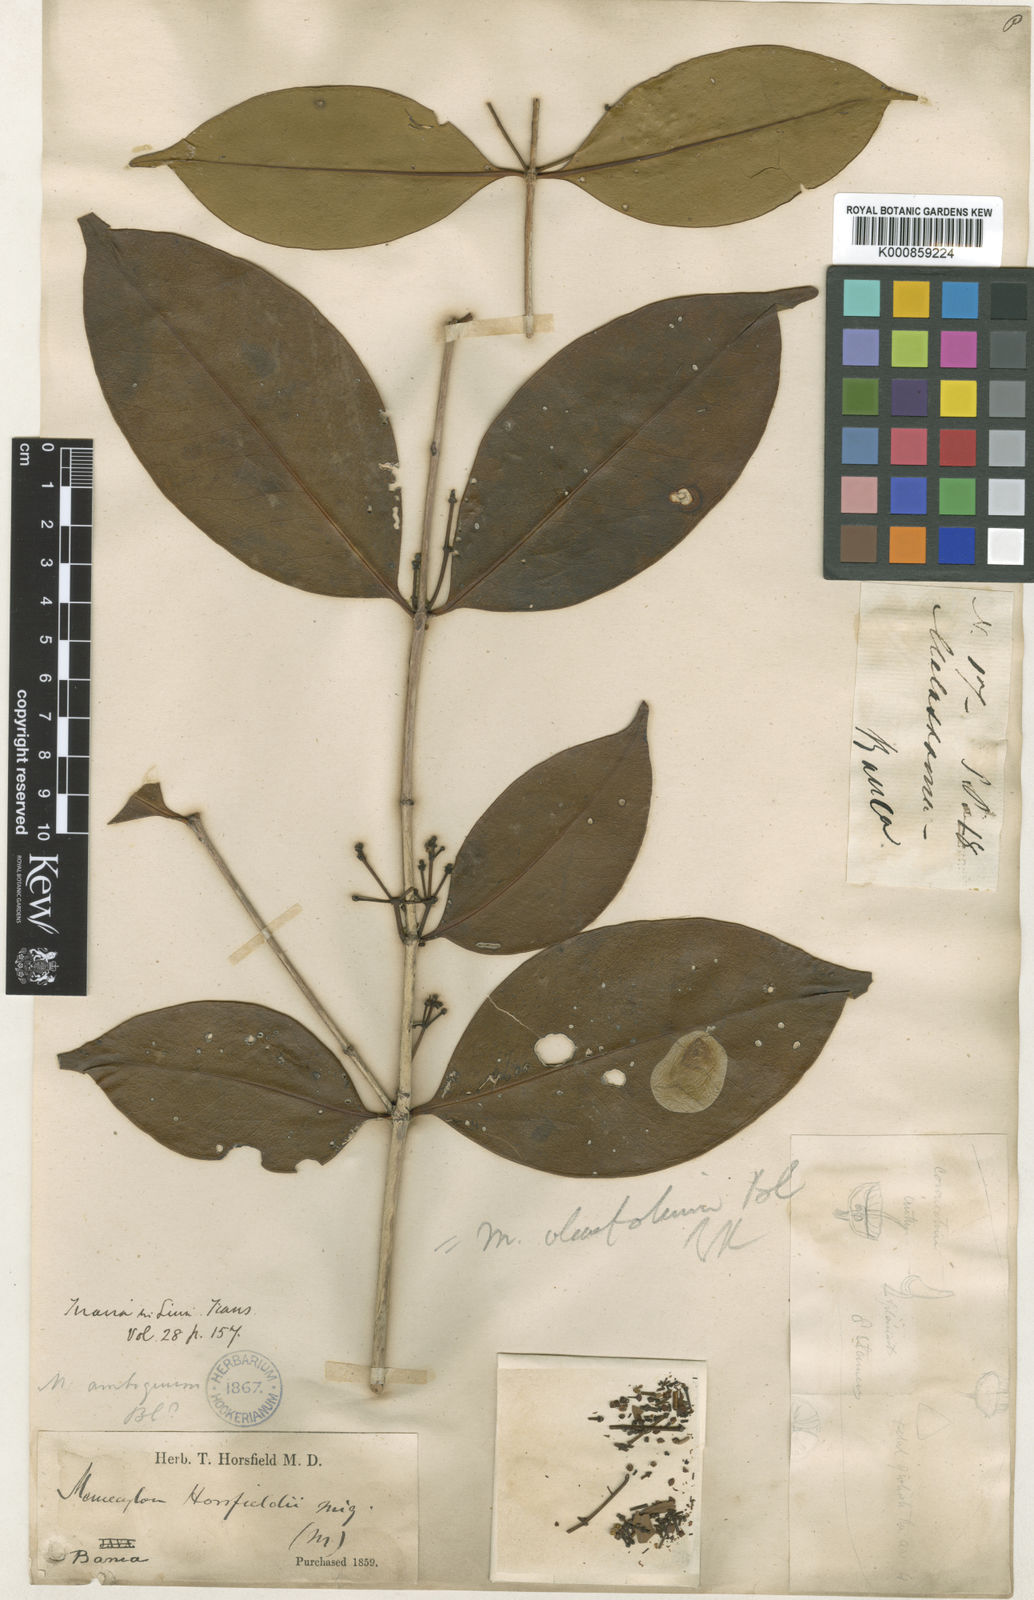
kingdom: Plantae
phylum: Tracheophyta
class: Magnoliopsida
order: Myrtales
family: Melastomataceae
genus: Memecylon
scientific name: Memecylon ochroleucum
